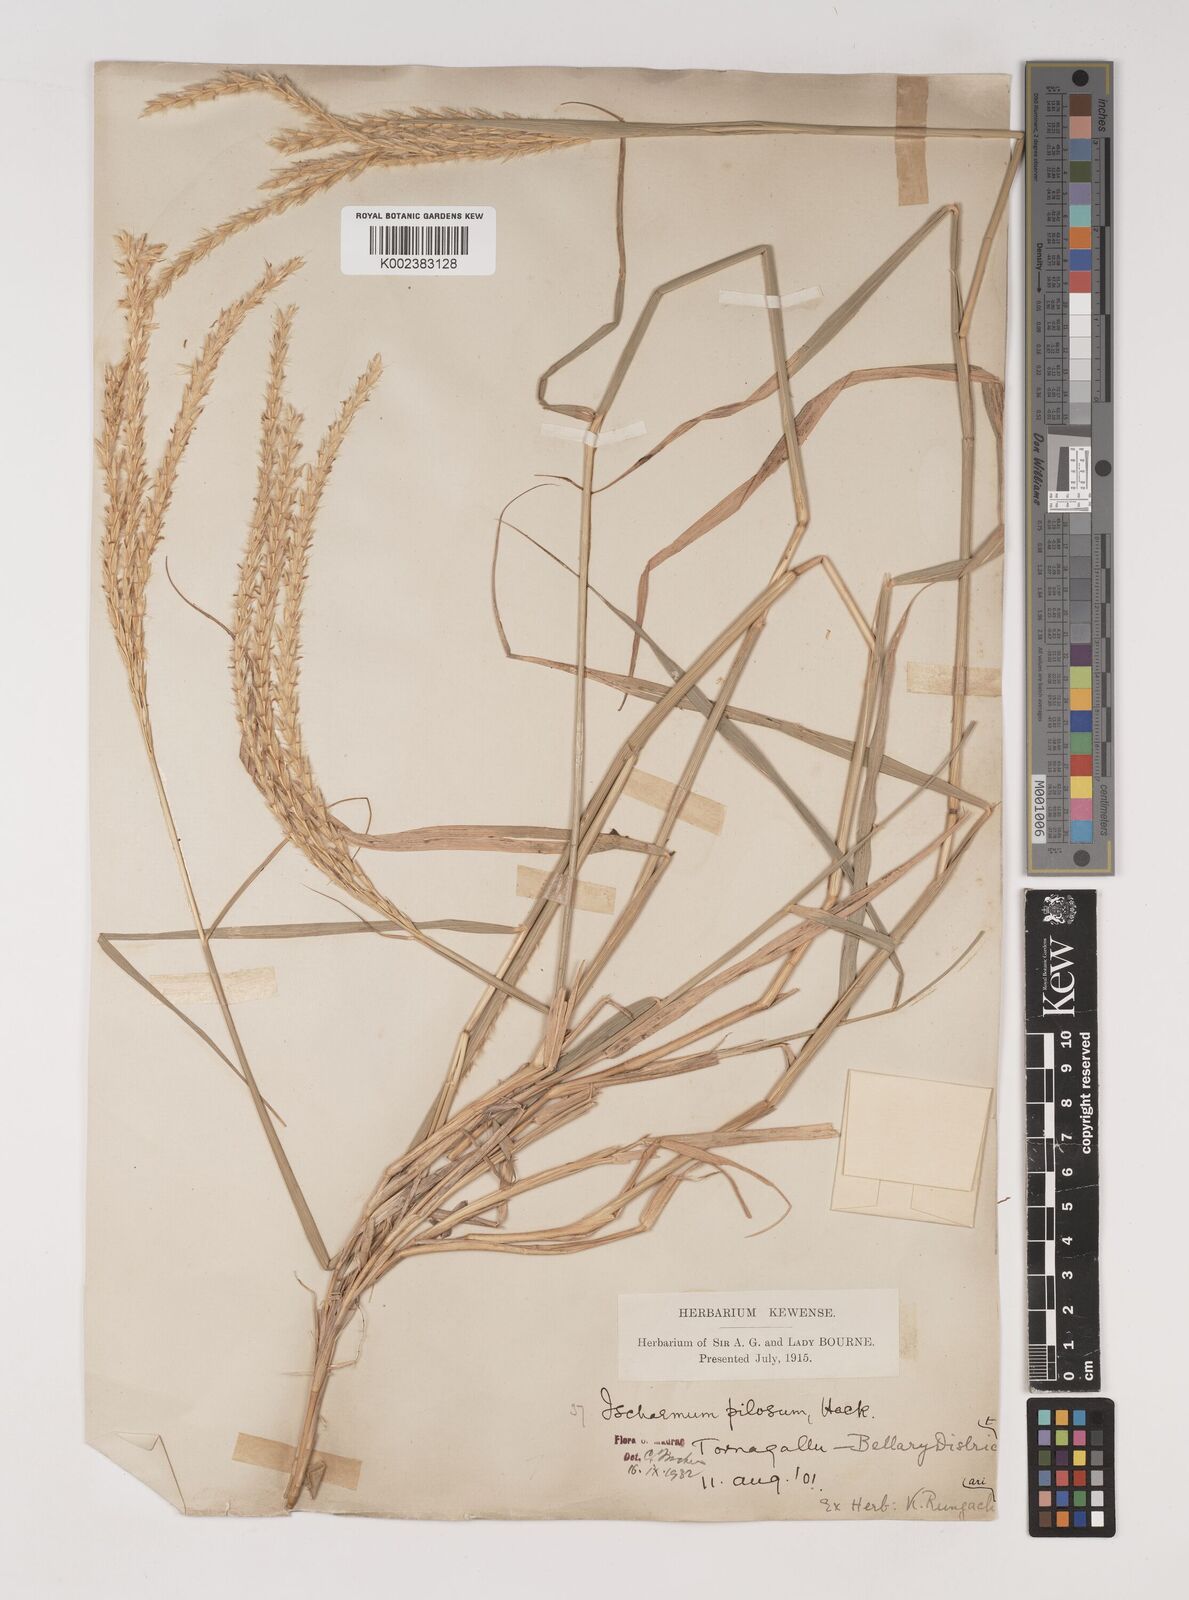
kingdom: Plantae
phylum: Tracheophyta
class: Liliopsida
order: Poales
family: Poaceae
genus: Ischaemum
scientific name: Ischaemum afrum
